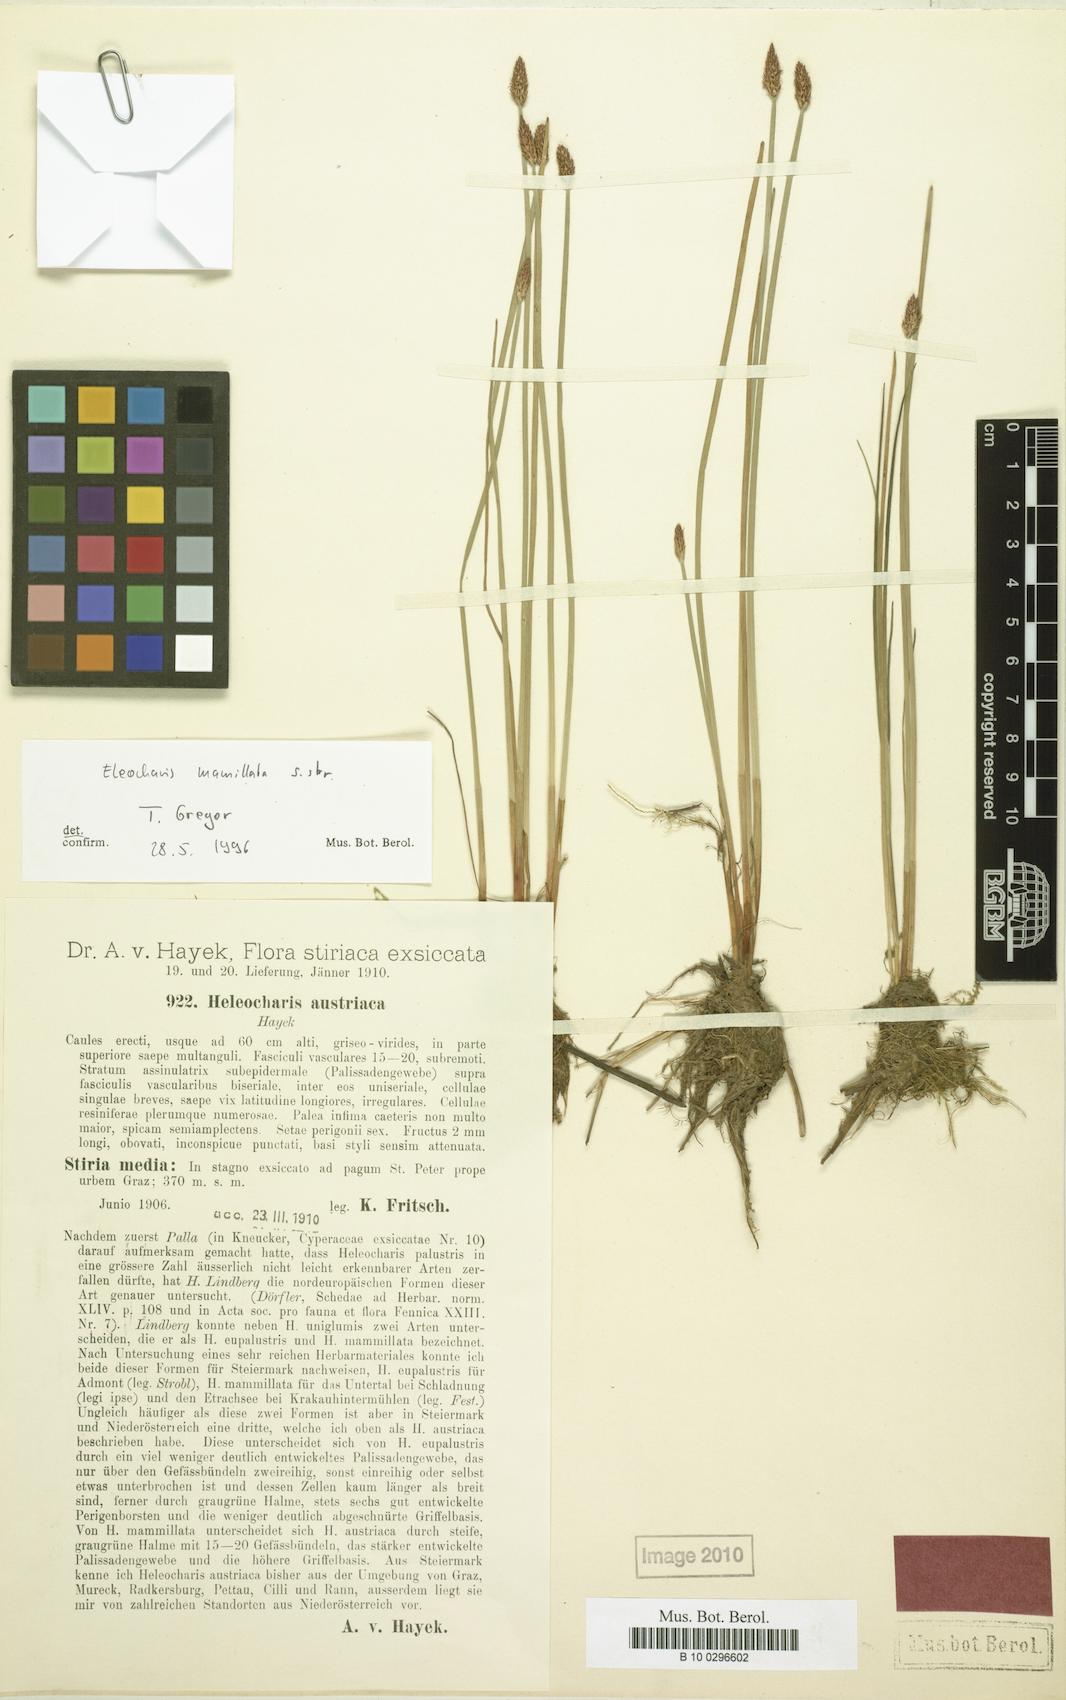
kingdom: Plantae
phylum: Tracheophyta
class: Liliopsida
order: Poales
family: Cyperaceae
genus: Eleocharis
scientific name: Eleocharis mamillata
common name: Northern spike-rush
